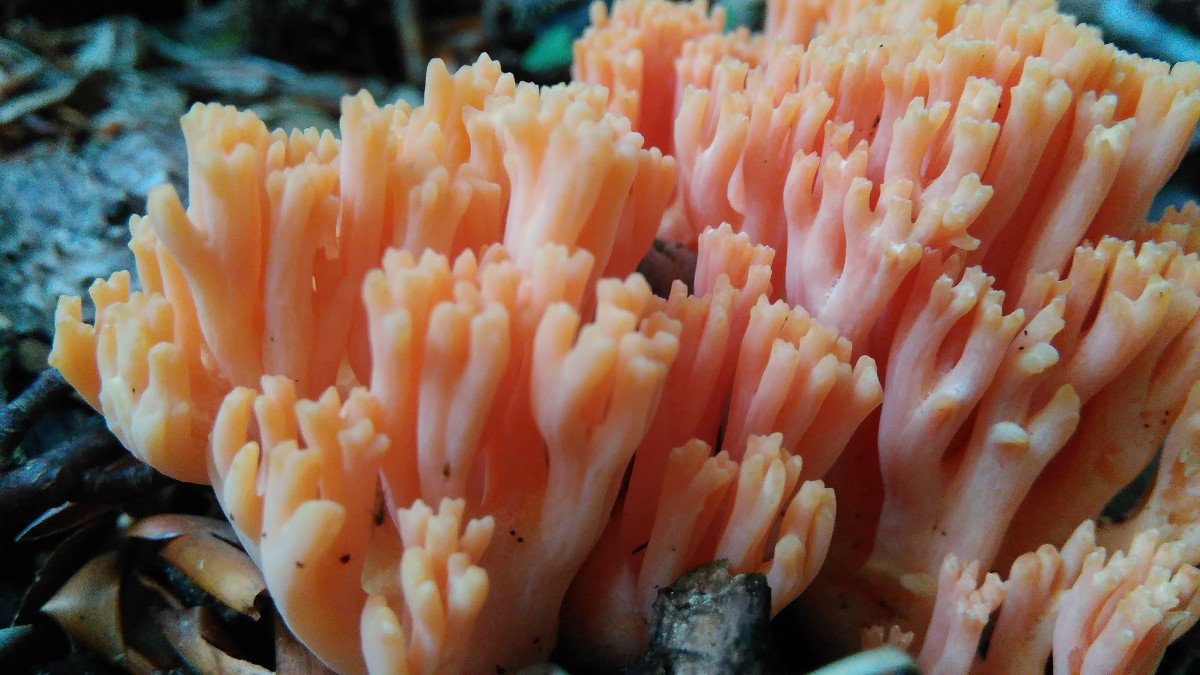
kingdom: Fungi
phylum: Basidiomycota
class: Agaricomycetes
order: Gomphales
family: Gomphaceae
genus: Ramaria
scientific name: Ramaria fagetorum
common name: abrikos-koralsvamp
